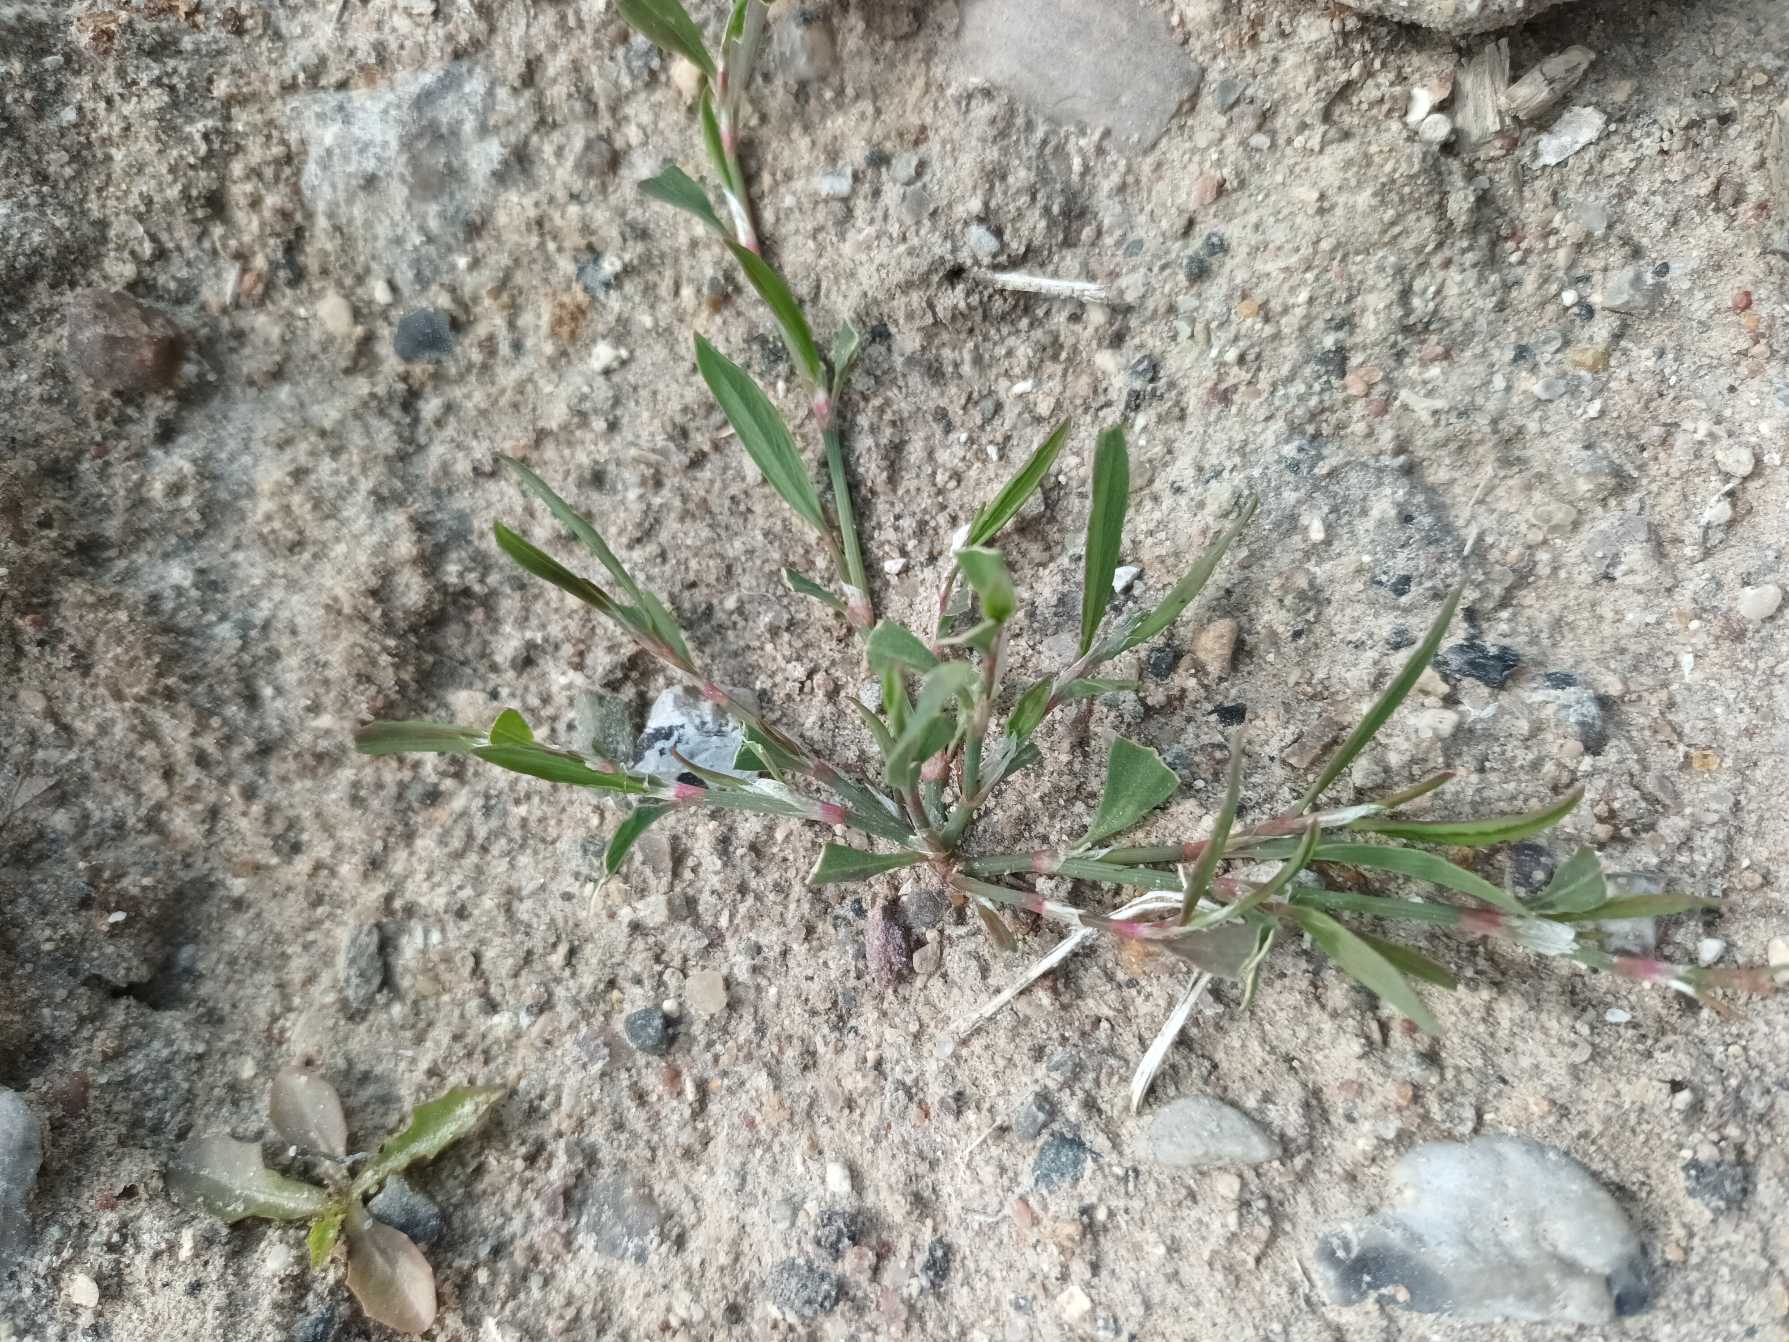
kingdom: Plantae
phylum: Tracheophyta
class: Magnoliopsida
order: Caryophyllales
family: Polygonaceae
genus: Polygonum
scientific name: Polygonum aviculare
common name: Spidsbladet vej-pileurt
